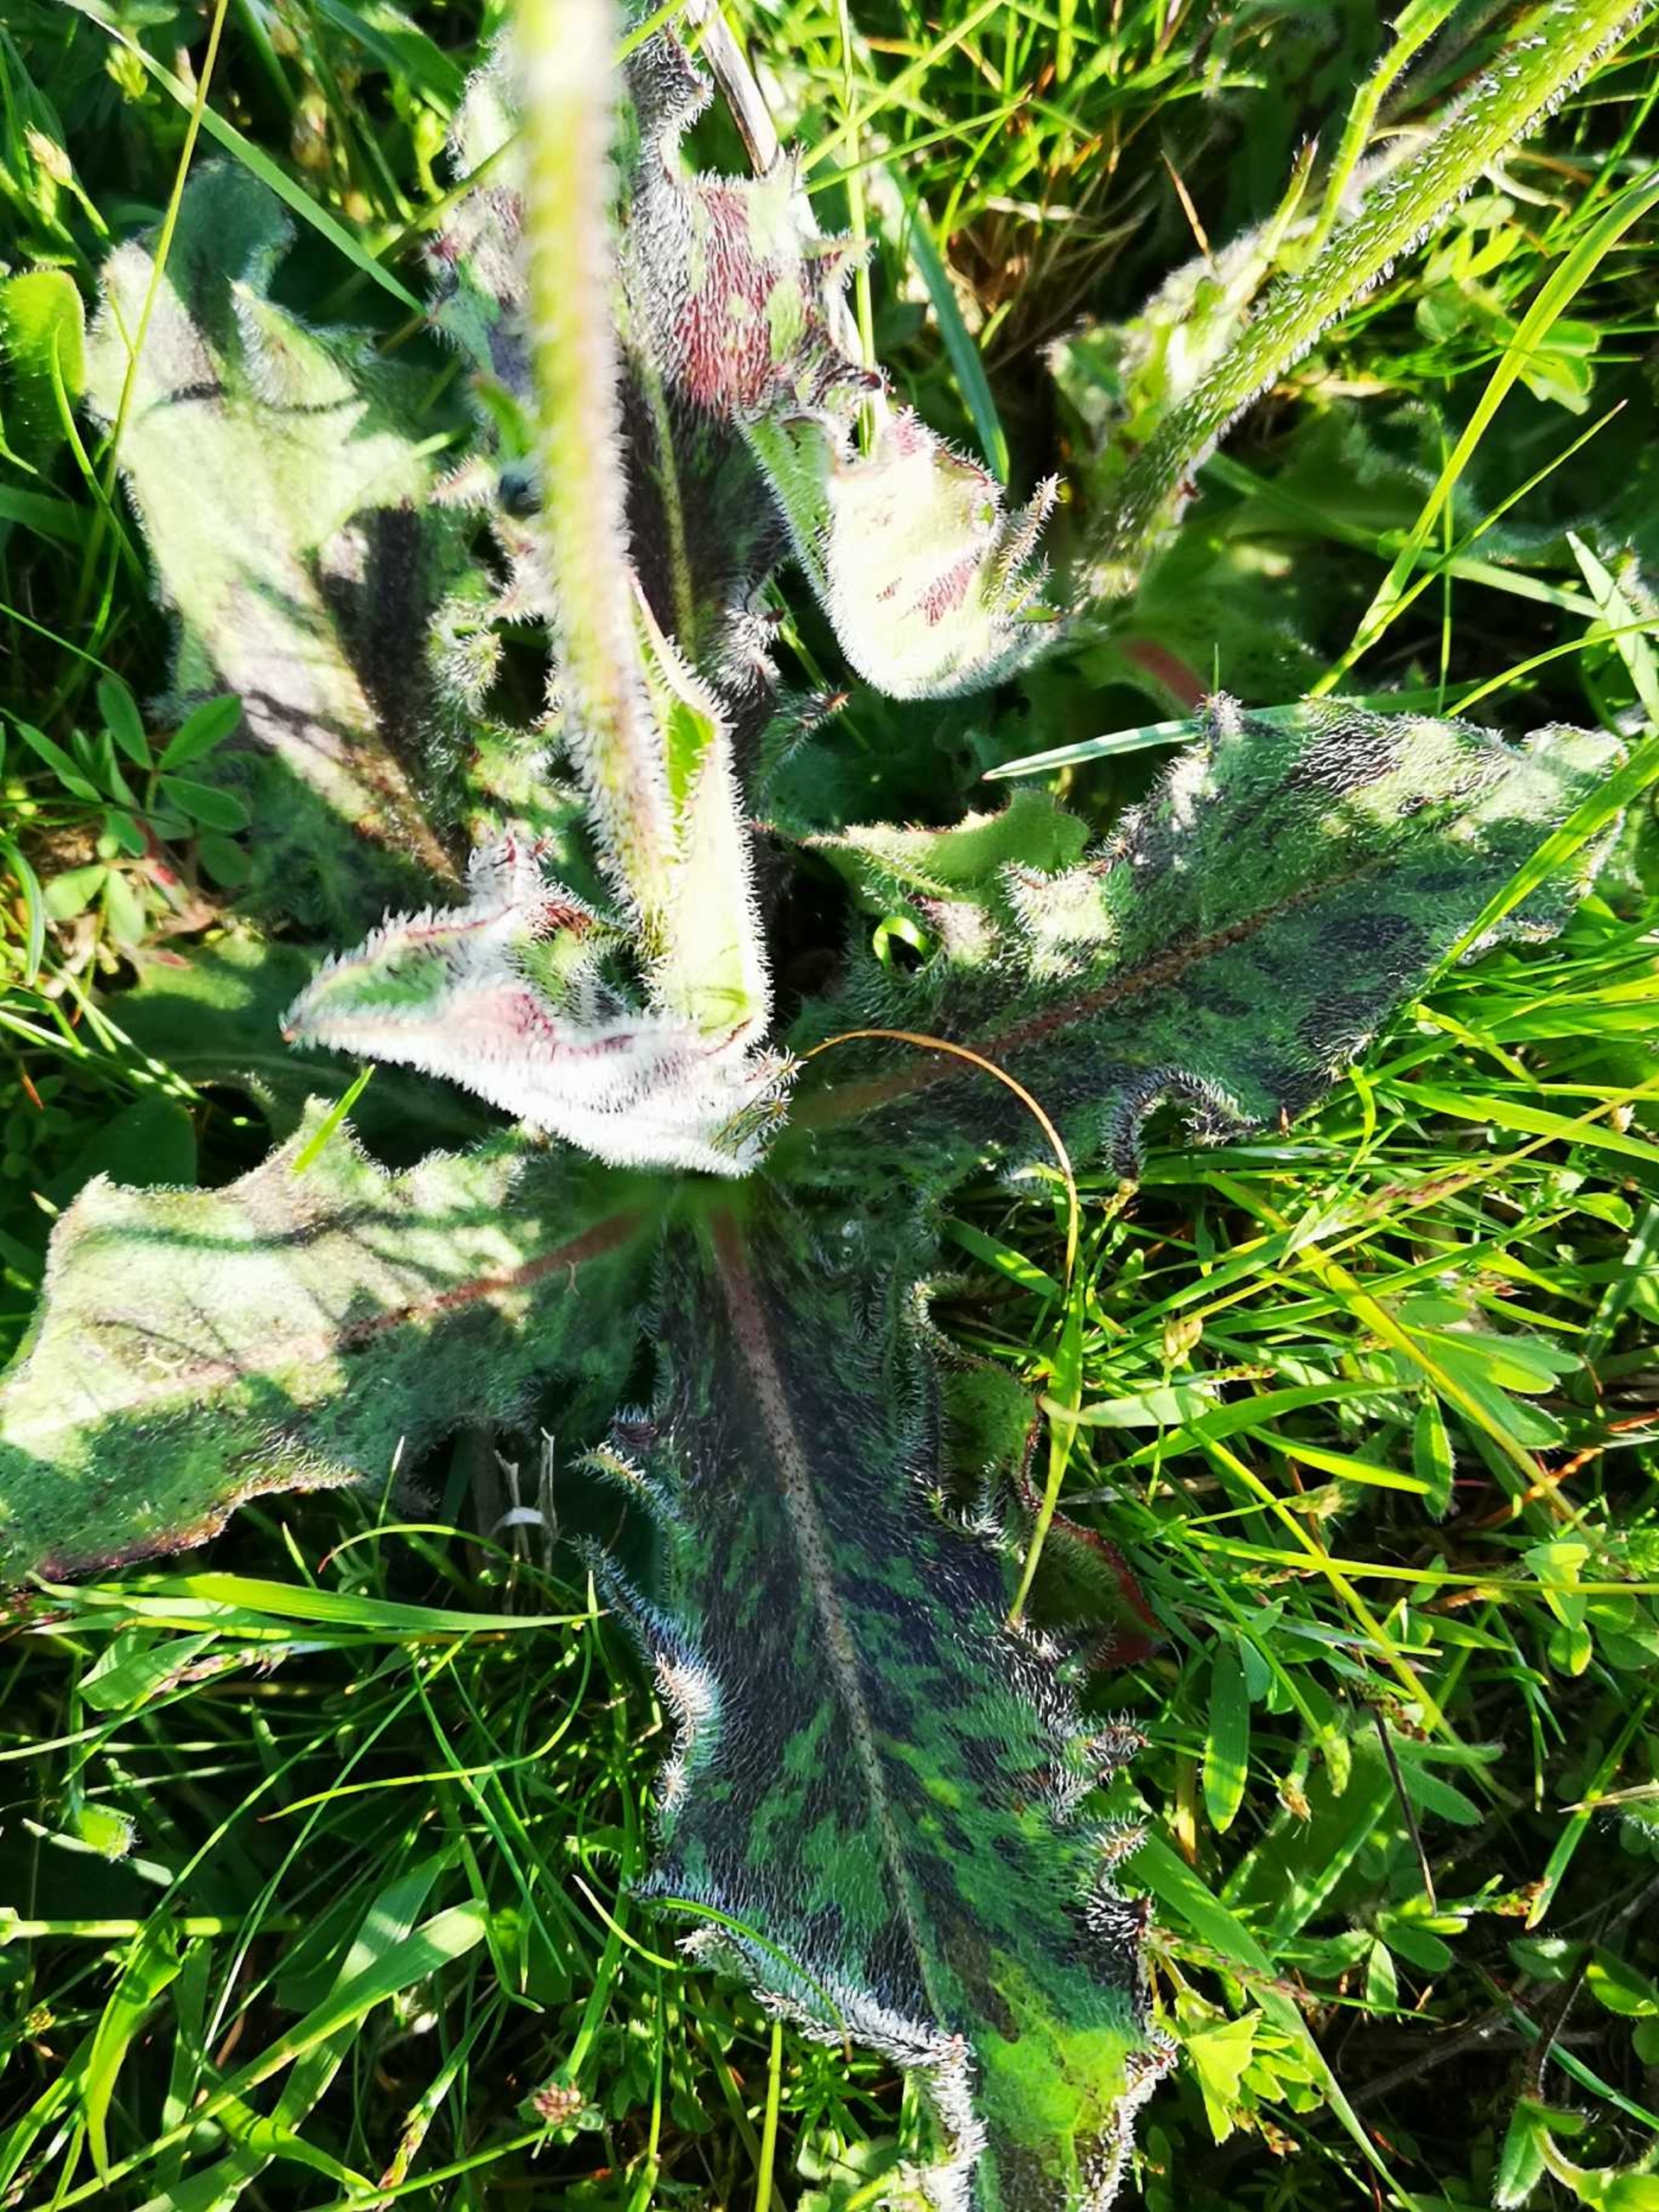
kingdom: Plantae
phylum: Tracheophyta
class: Magnoliopsida
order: Asterales
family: Asteraceae
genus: Trommsdorffia
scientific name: Trommsdorffia maculata
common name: Plettet kongepen
